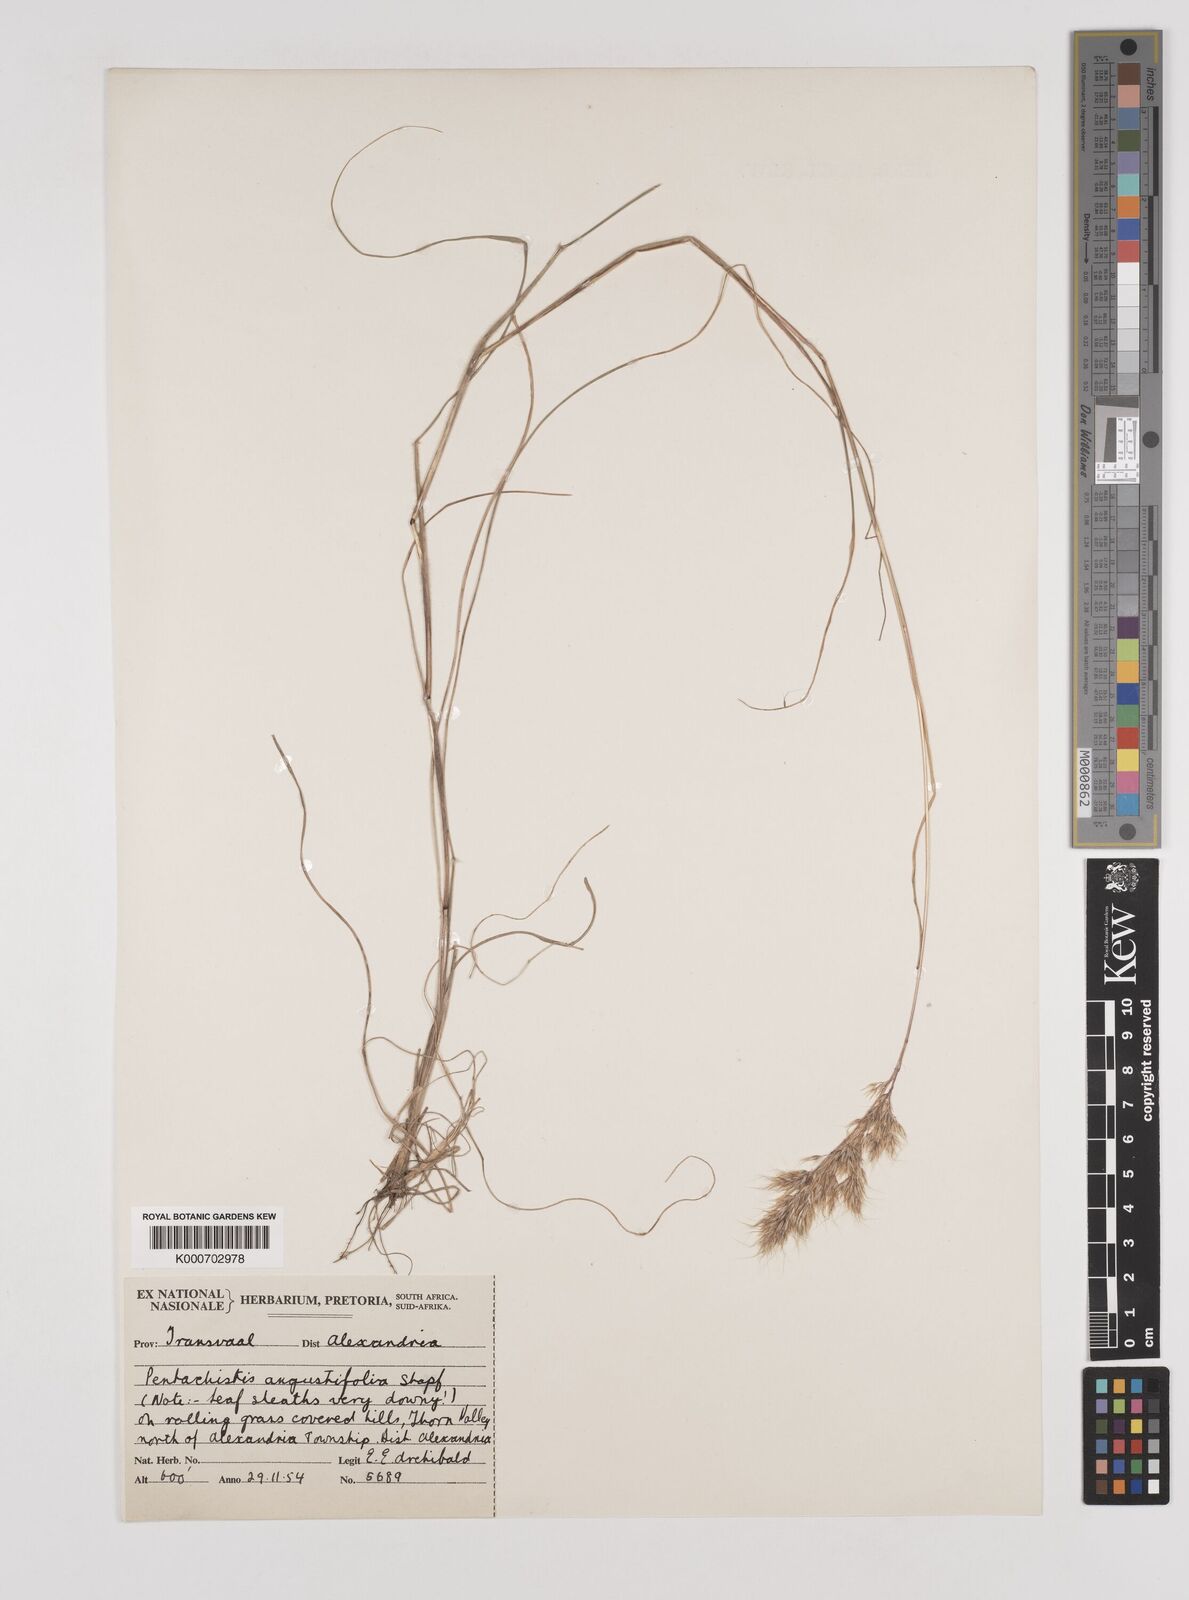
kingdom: Plantae
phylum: Tracheophyta
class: Liliopsida
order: Poales
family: Poaceae
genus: Pentameris
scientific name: Pentameris pallida
